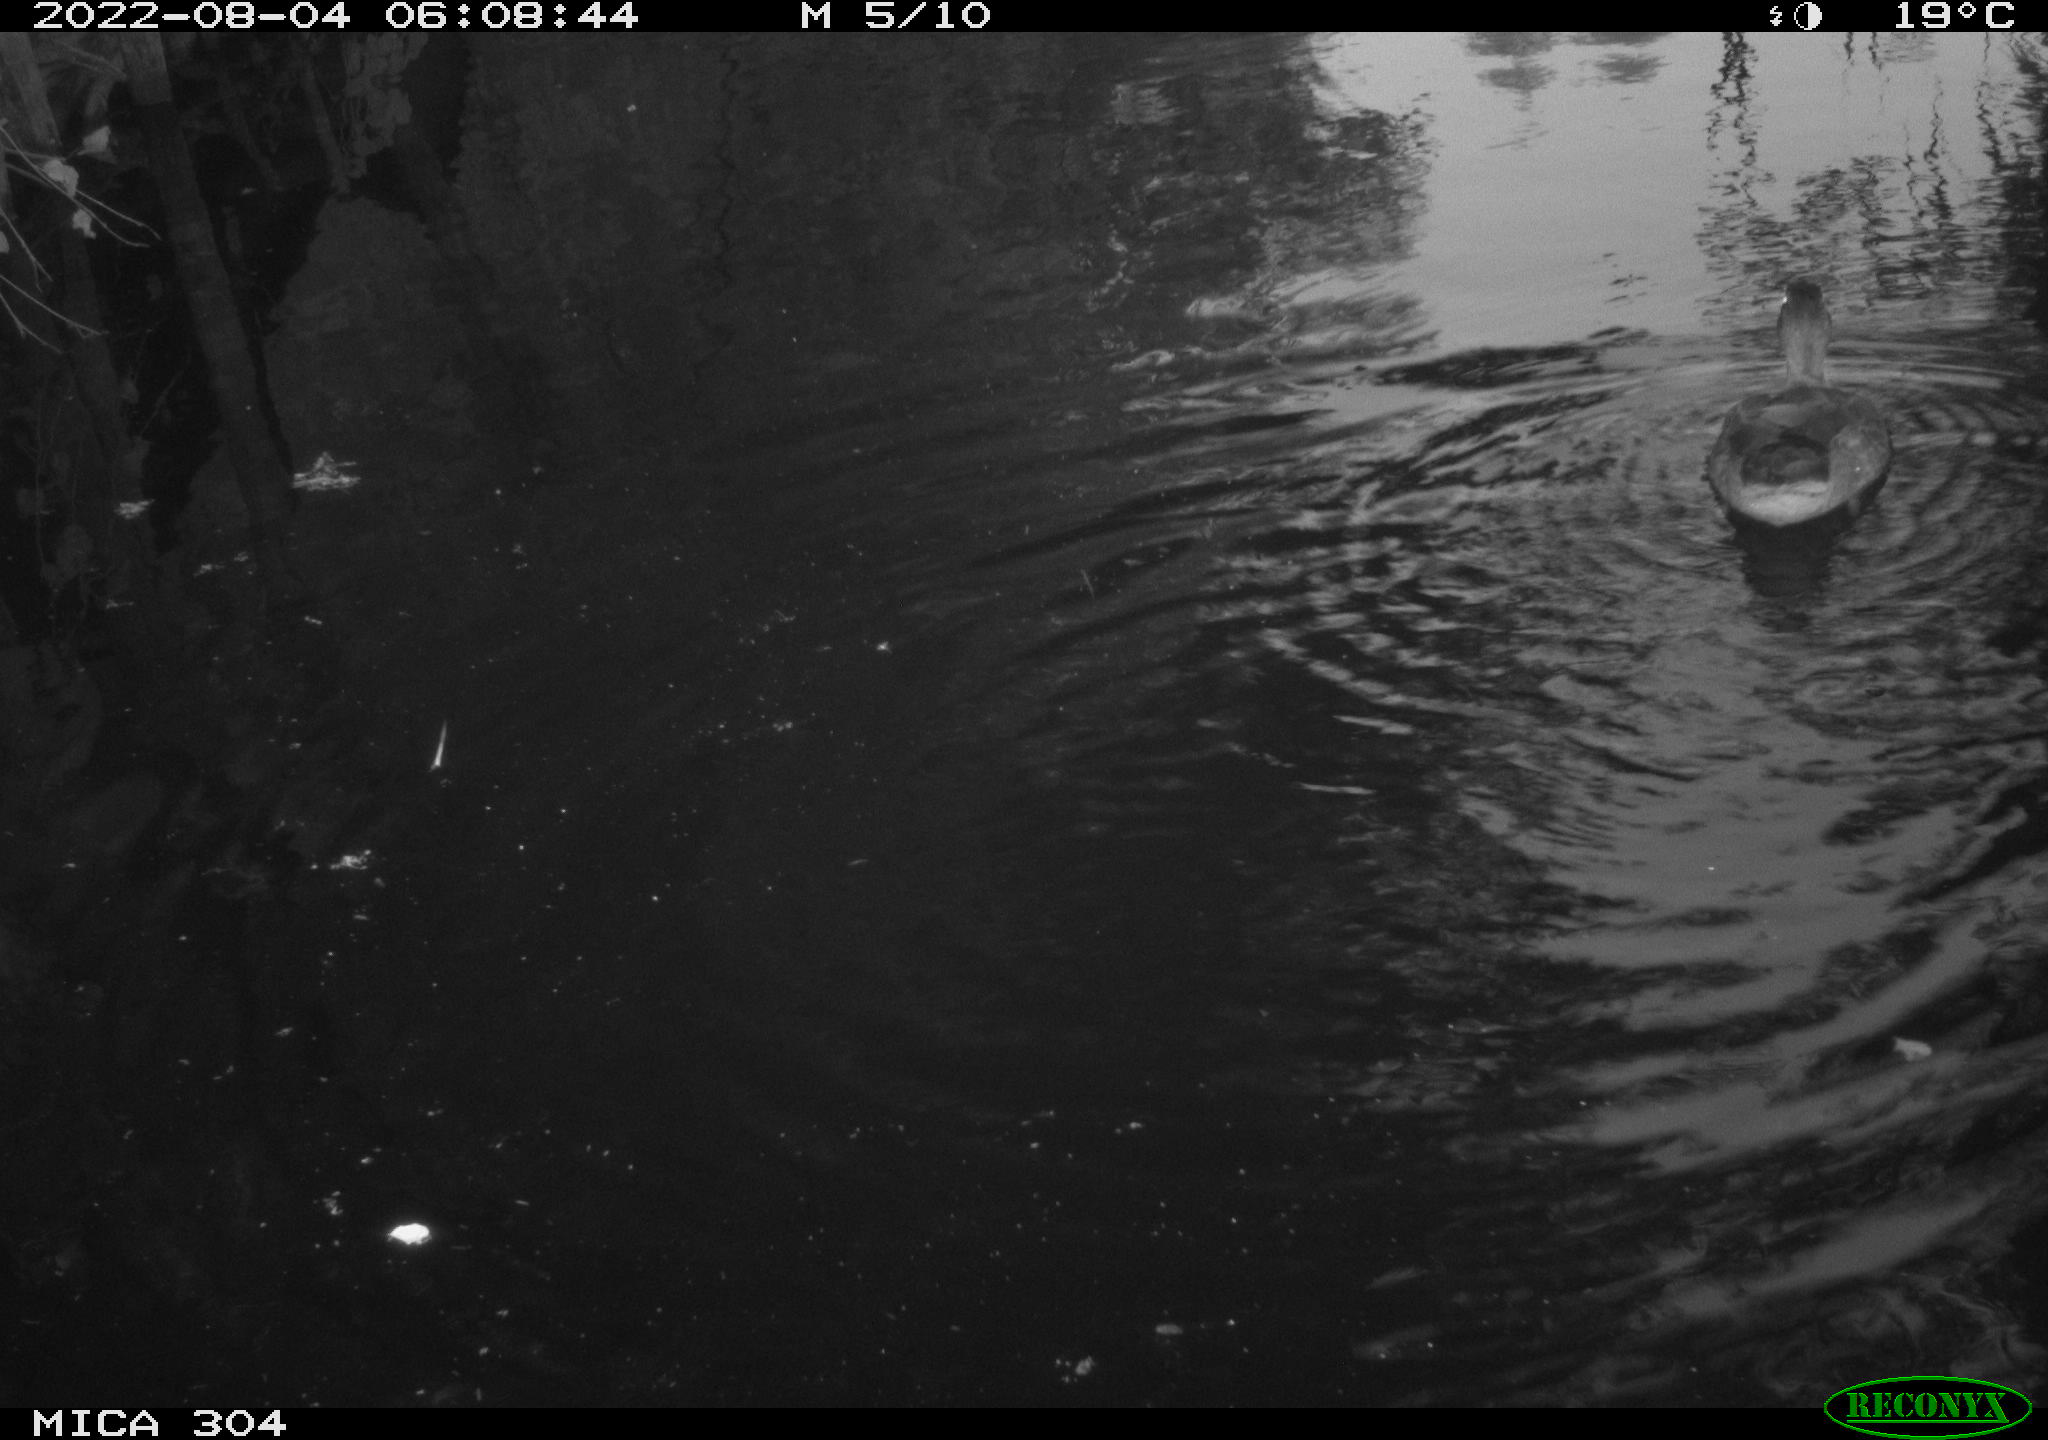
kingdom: Animalia
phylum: Chordata
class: Aves
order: Anseriformes
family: Anatidae
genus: Anas
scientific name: Anas platyrhynchos
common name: Mallard
